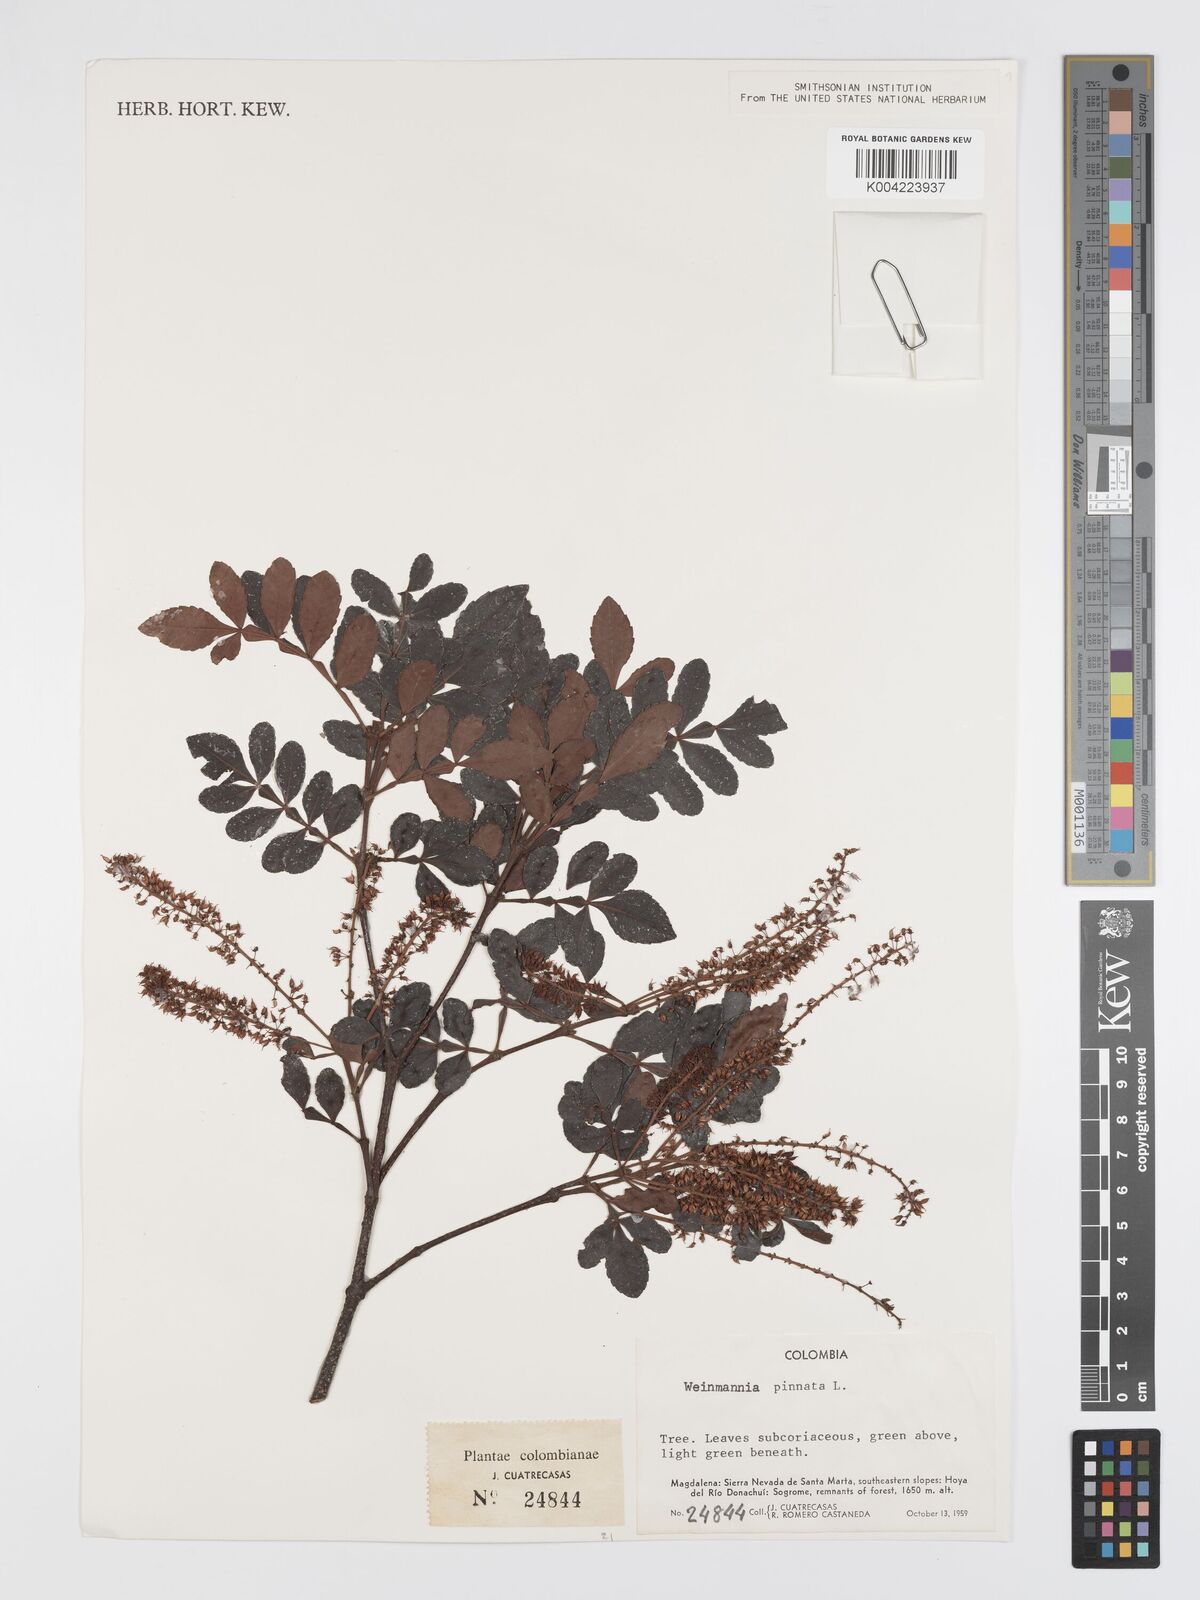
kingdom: Plantae
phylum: Tracheophyta
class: Magnoliopsida
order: Oxalidales
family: Cunoniaceae
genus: Weinmannia
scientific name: Weinmannia pinnata
